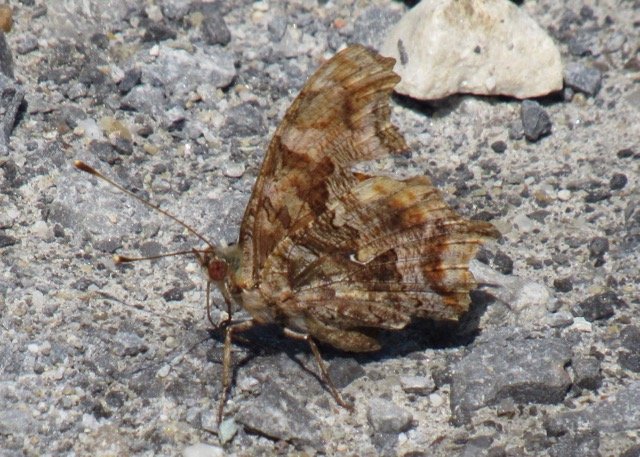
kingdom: Animalia
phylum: Arthropoda
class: Insecta
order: Lepidoptera
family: Nymphalidae
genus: Polygonia
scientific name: Polygonia comma
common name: Eastern Comma
